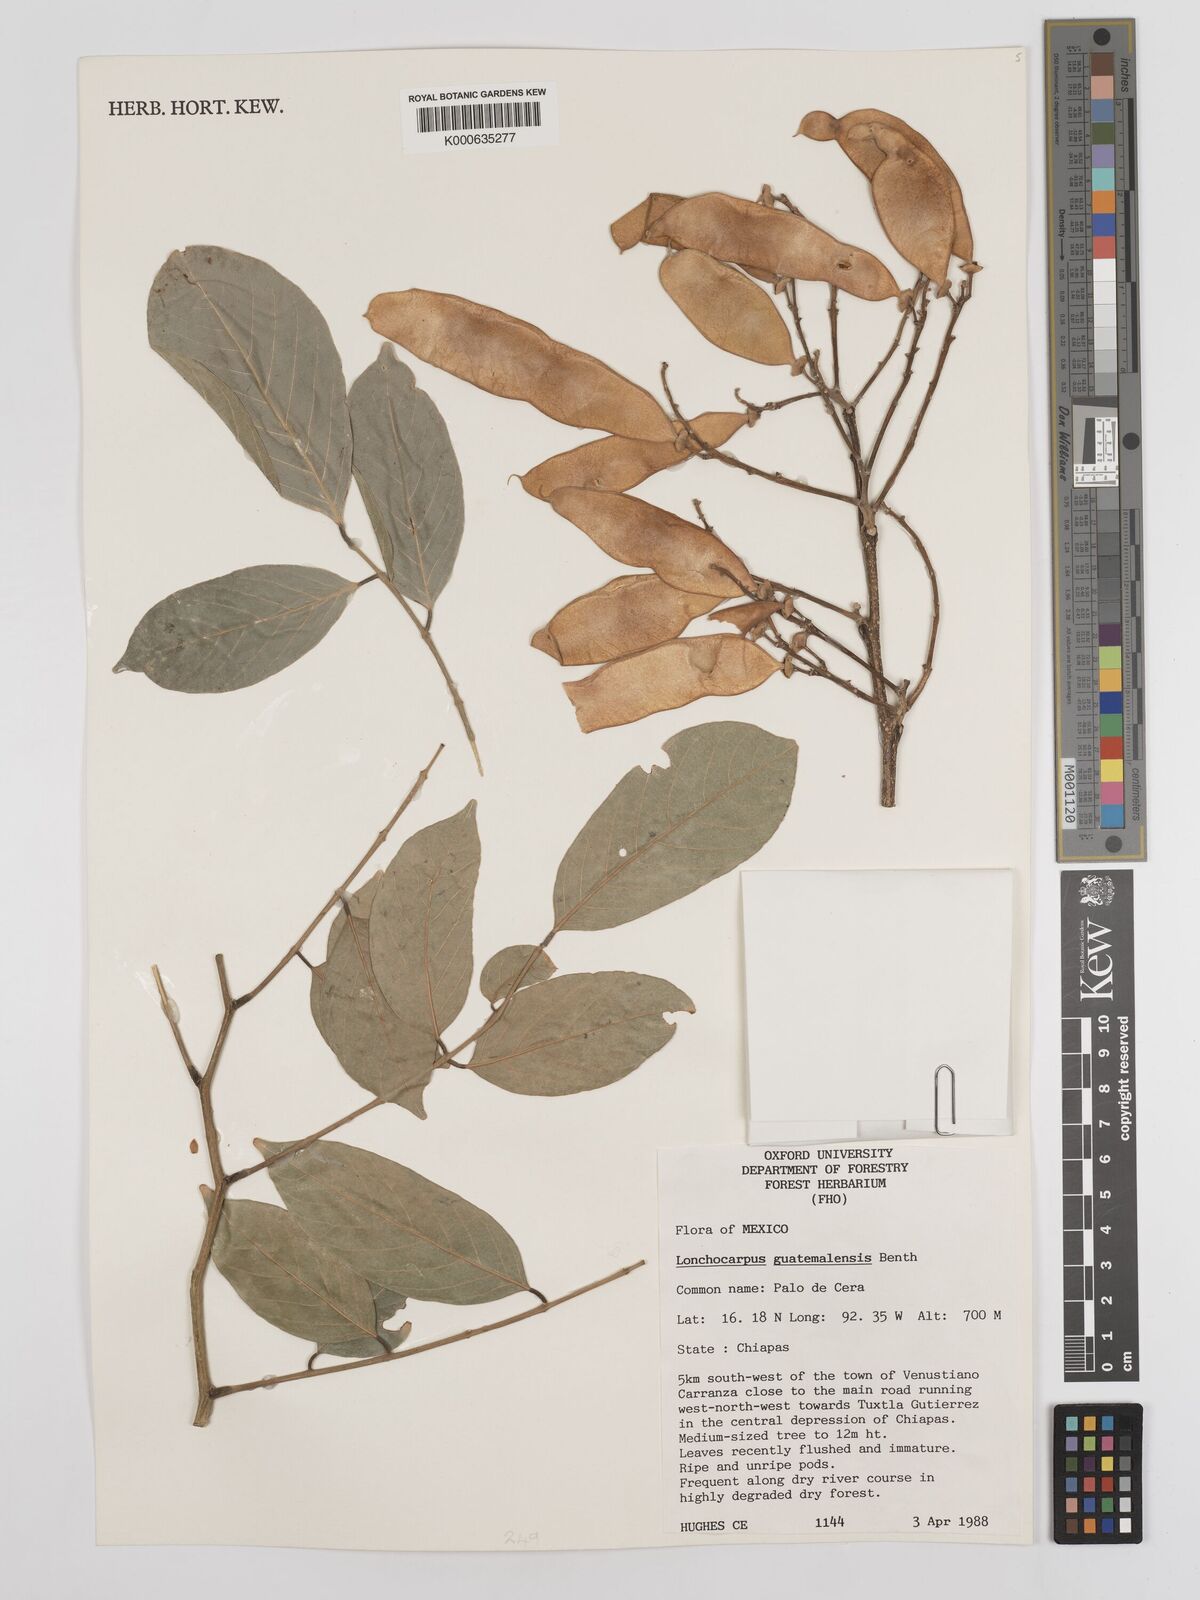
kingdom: Plantae
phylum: Tracheophyta
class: Magnoliopsida
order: Fabales
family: Fabaceae
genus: Lonchocarpus
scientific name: Lonchocarpus guatemalensis
